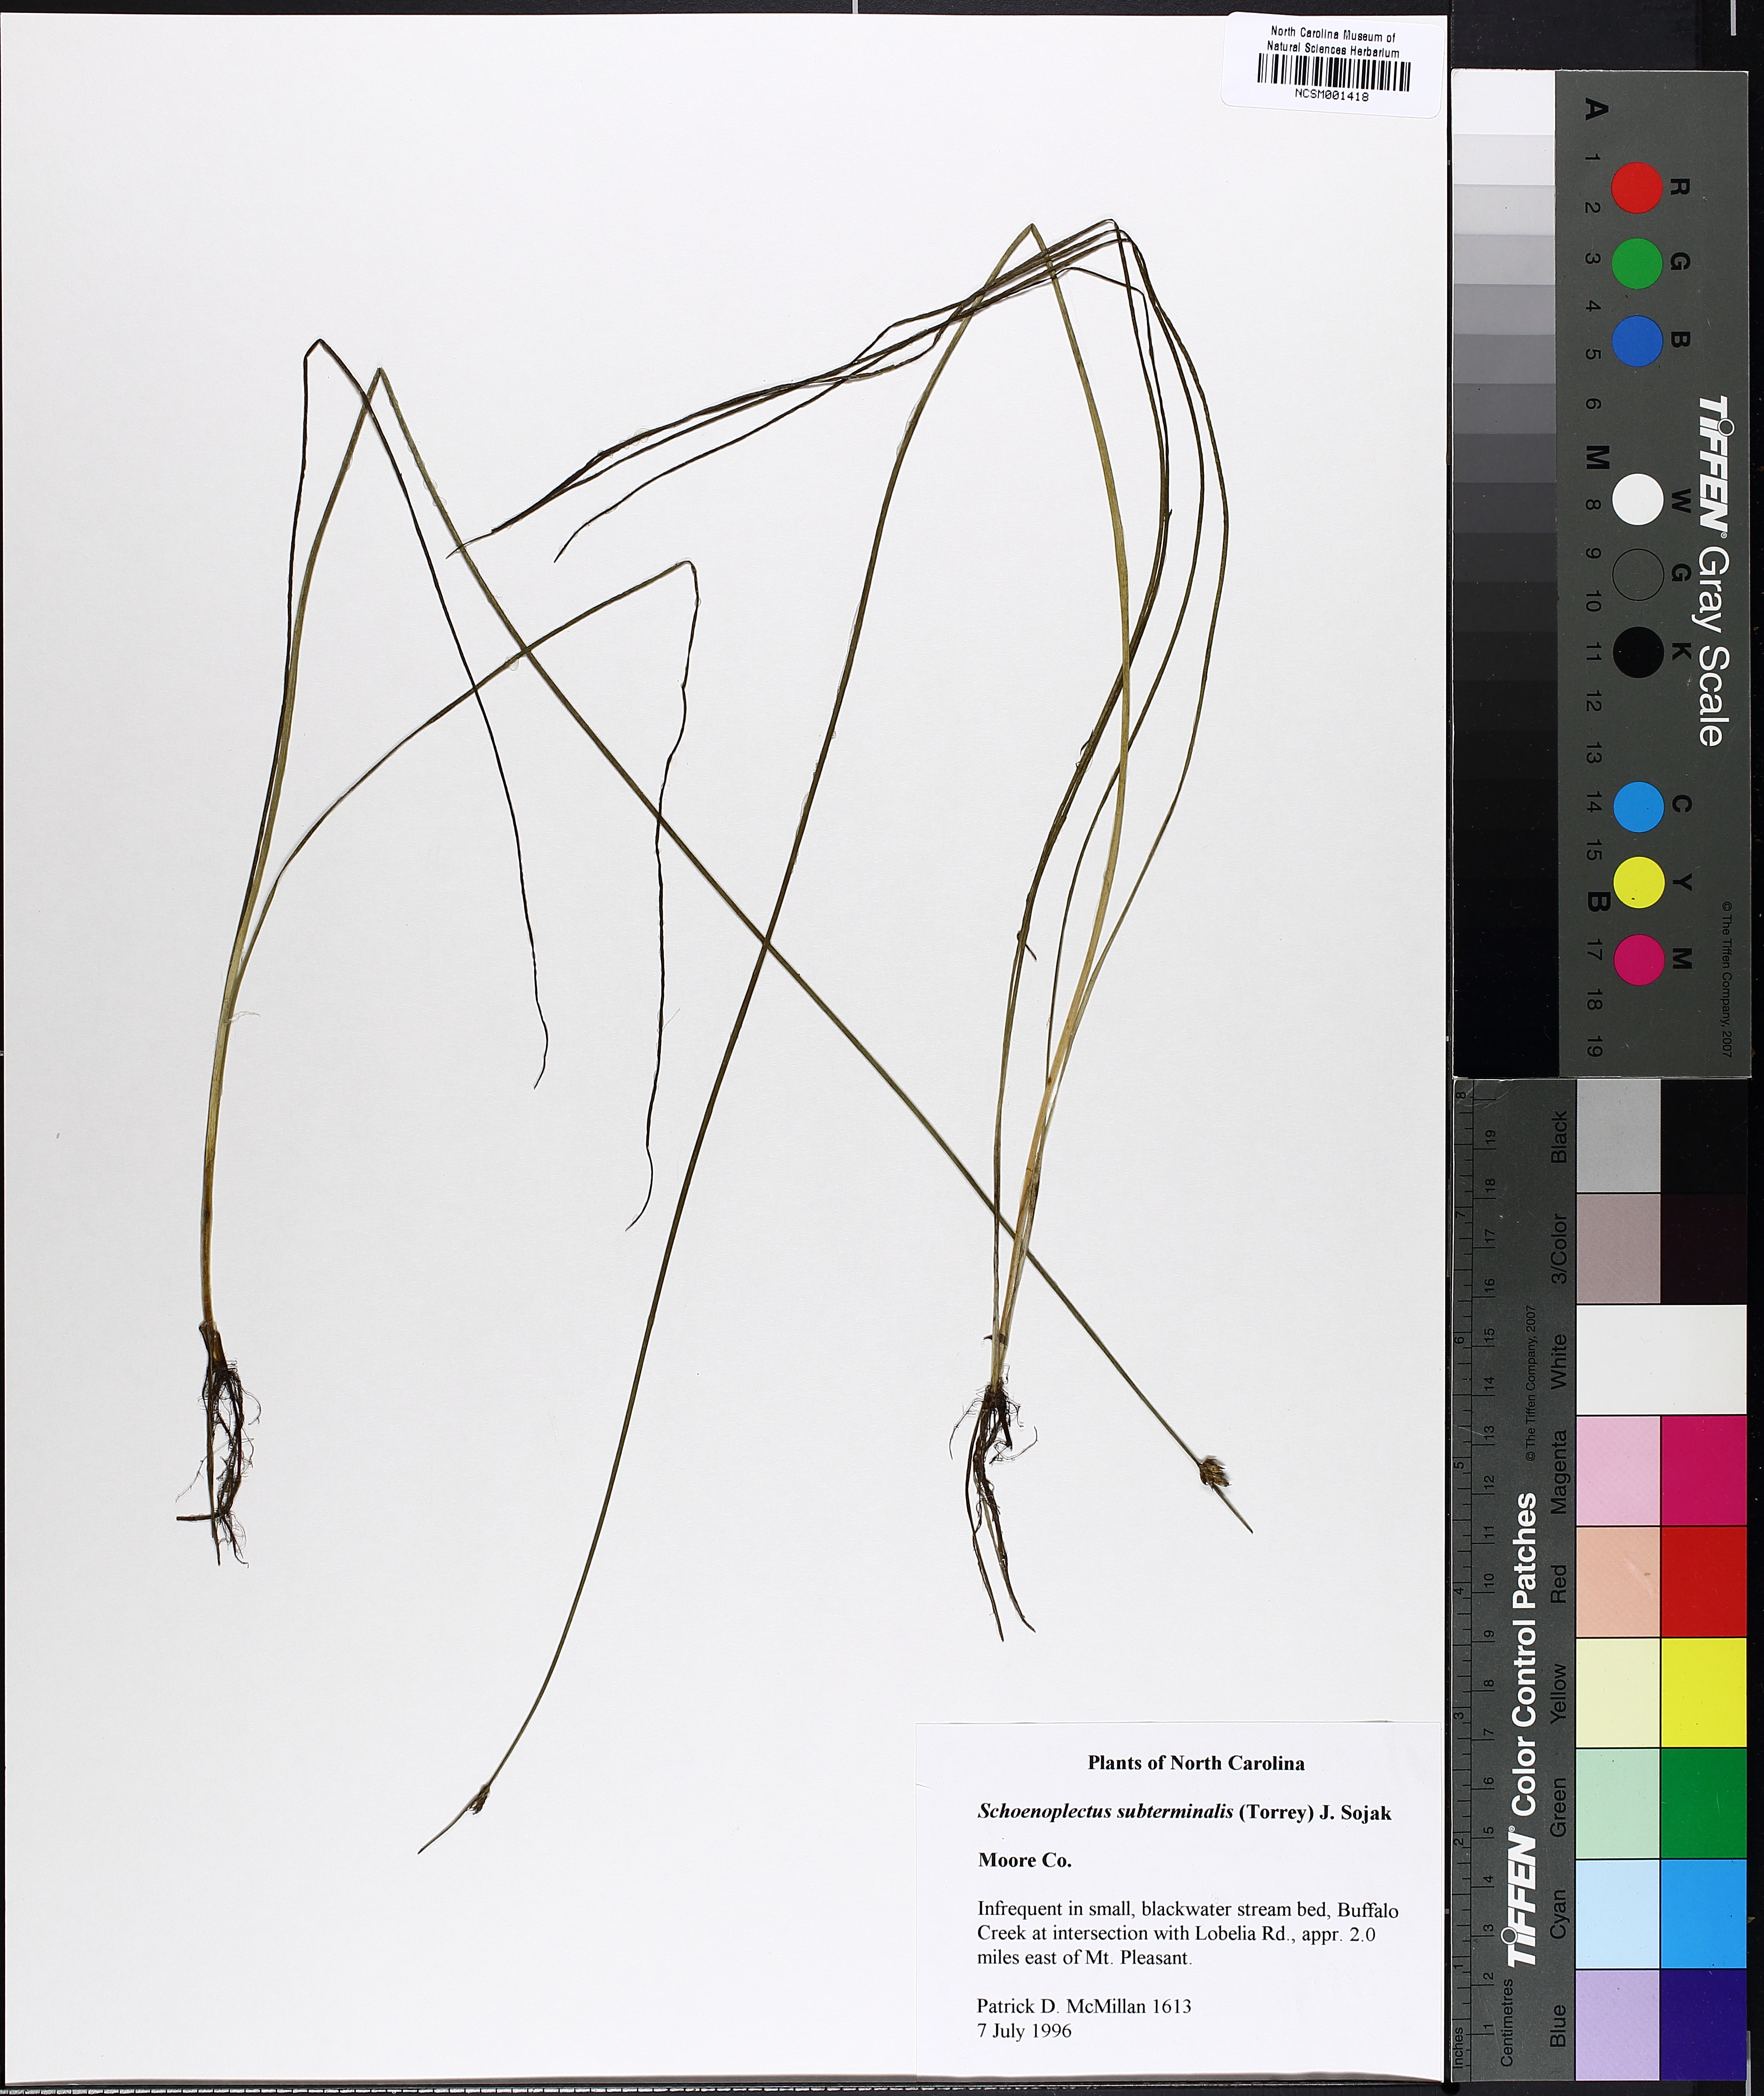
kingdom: Plantae
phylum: Tracheophyta
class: Liliopsida
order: Poales
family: Cyperaceae
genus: Schoenoplectus
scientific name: Schoenoplectus subterminalis
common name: Swaying bulrush
